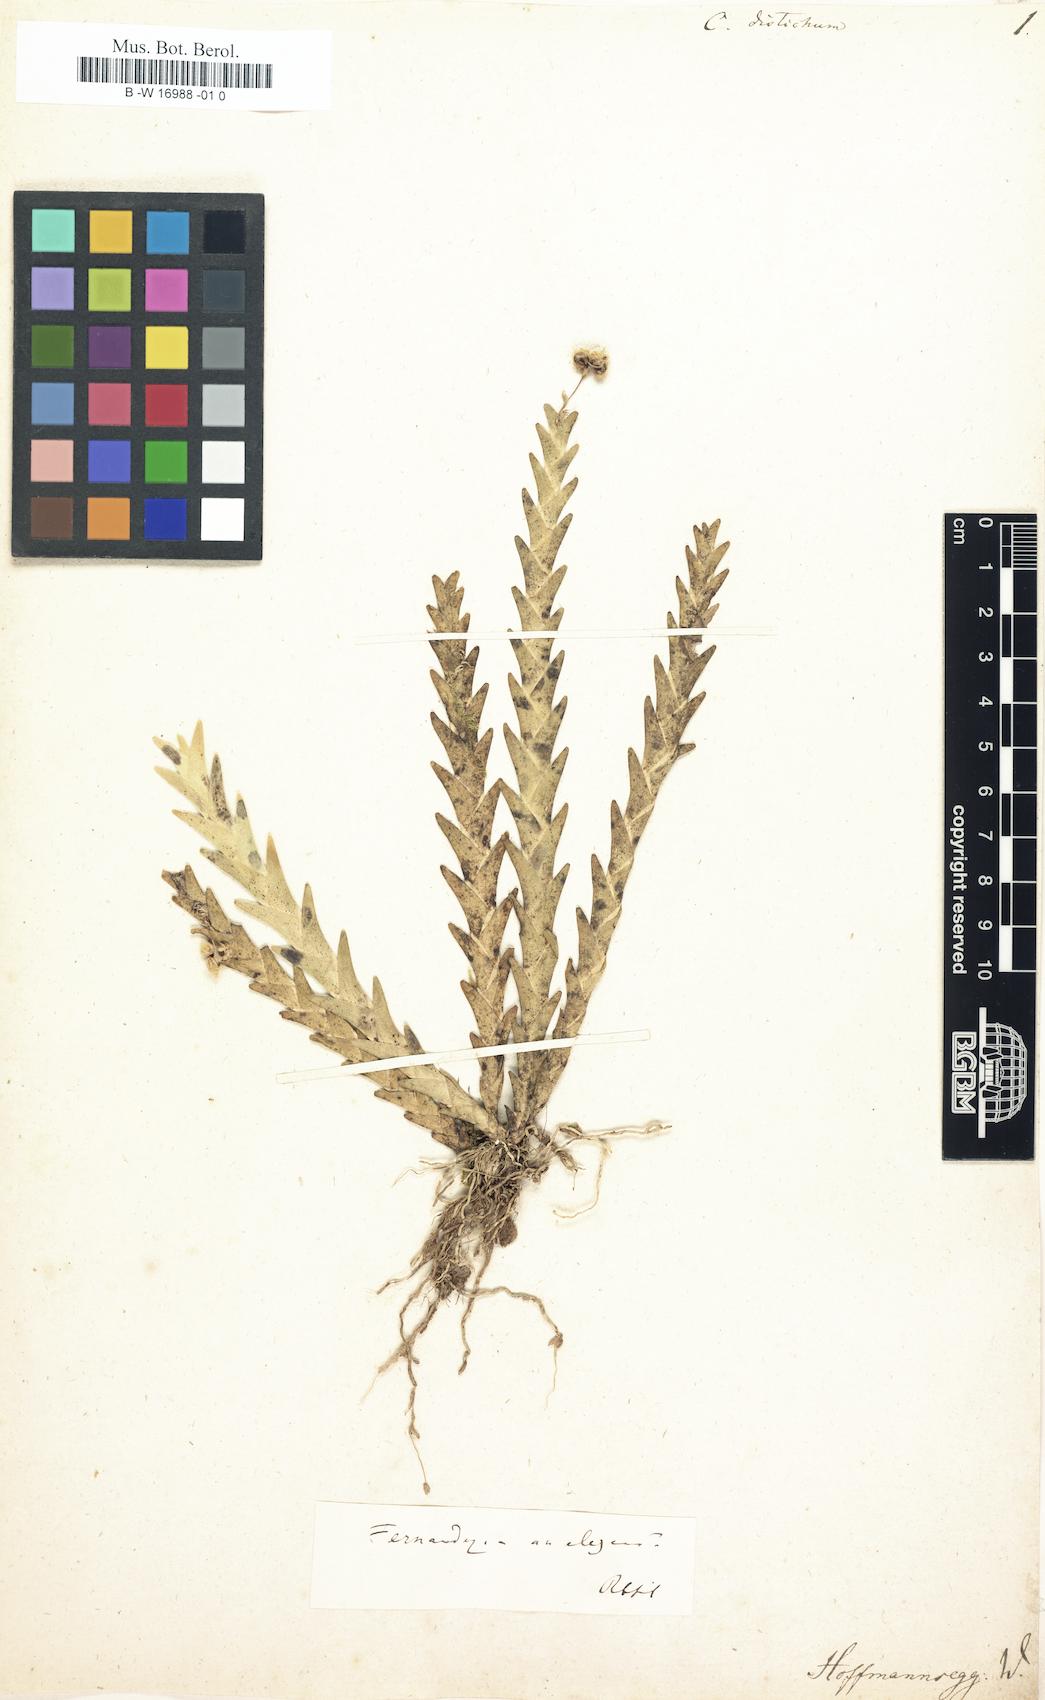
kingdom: Plantae
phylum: Tracheophyta
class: Liliopsida
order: Asparagales
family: Orchidaceae
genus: Cymbidium
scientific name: Cymbidium
